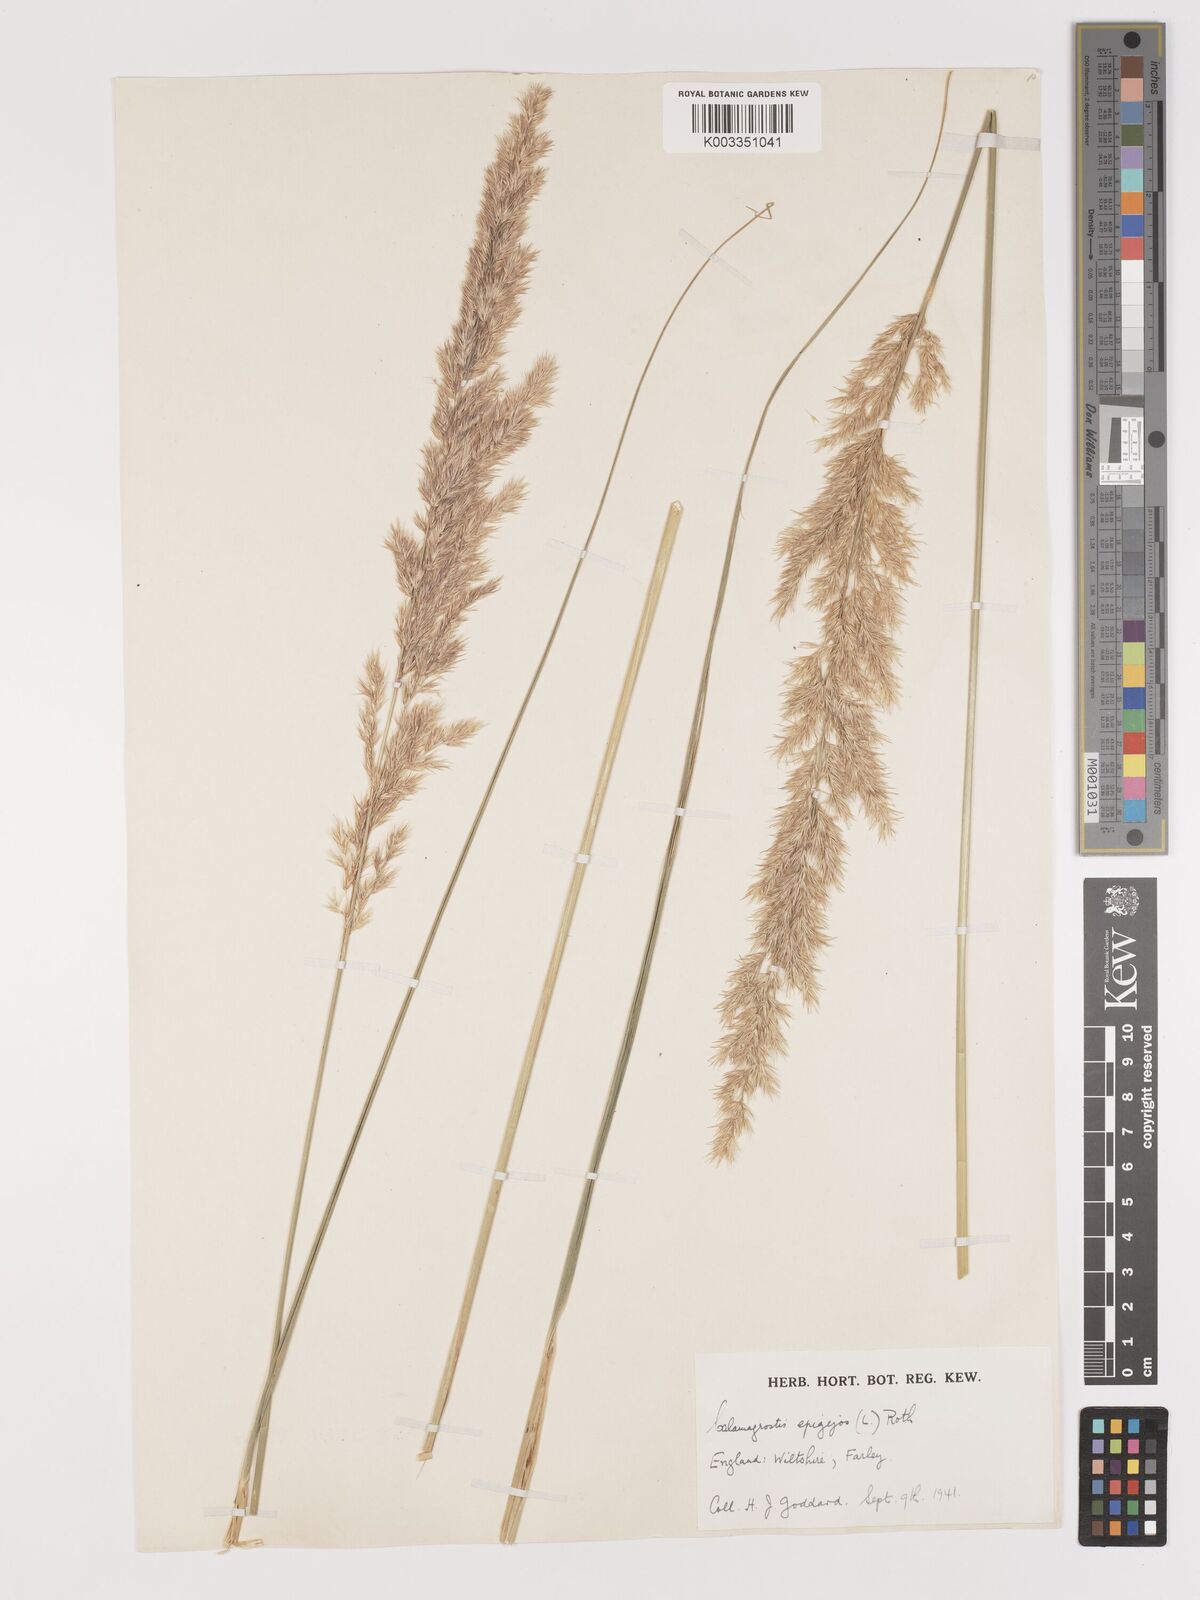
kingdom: Plantae
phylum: Tracheophyta
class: Liliopsida
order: Poales
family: Poaceae
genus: Calamagrostis
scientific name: Calamagrostis epigejos
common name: Wood small-reed
